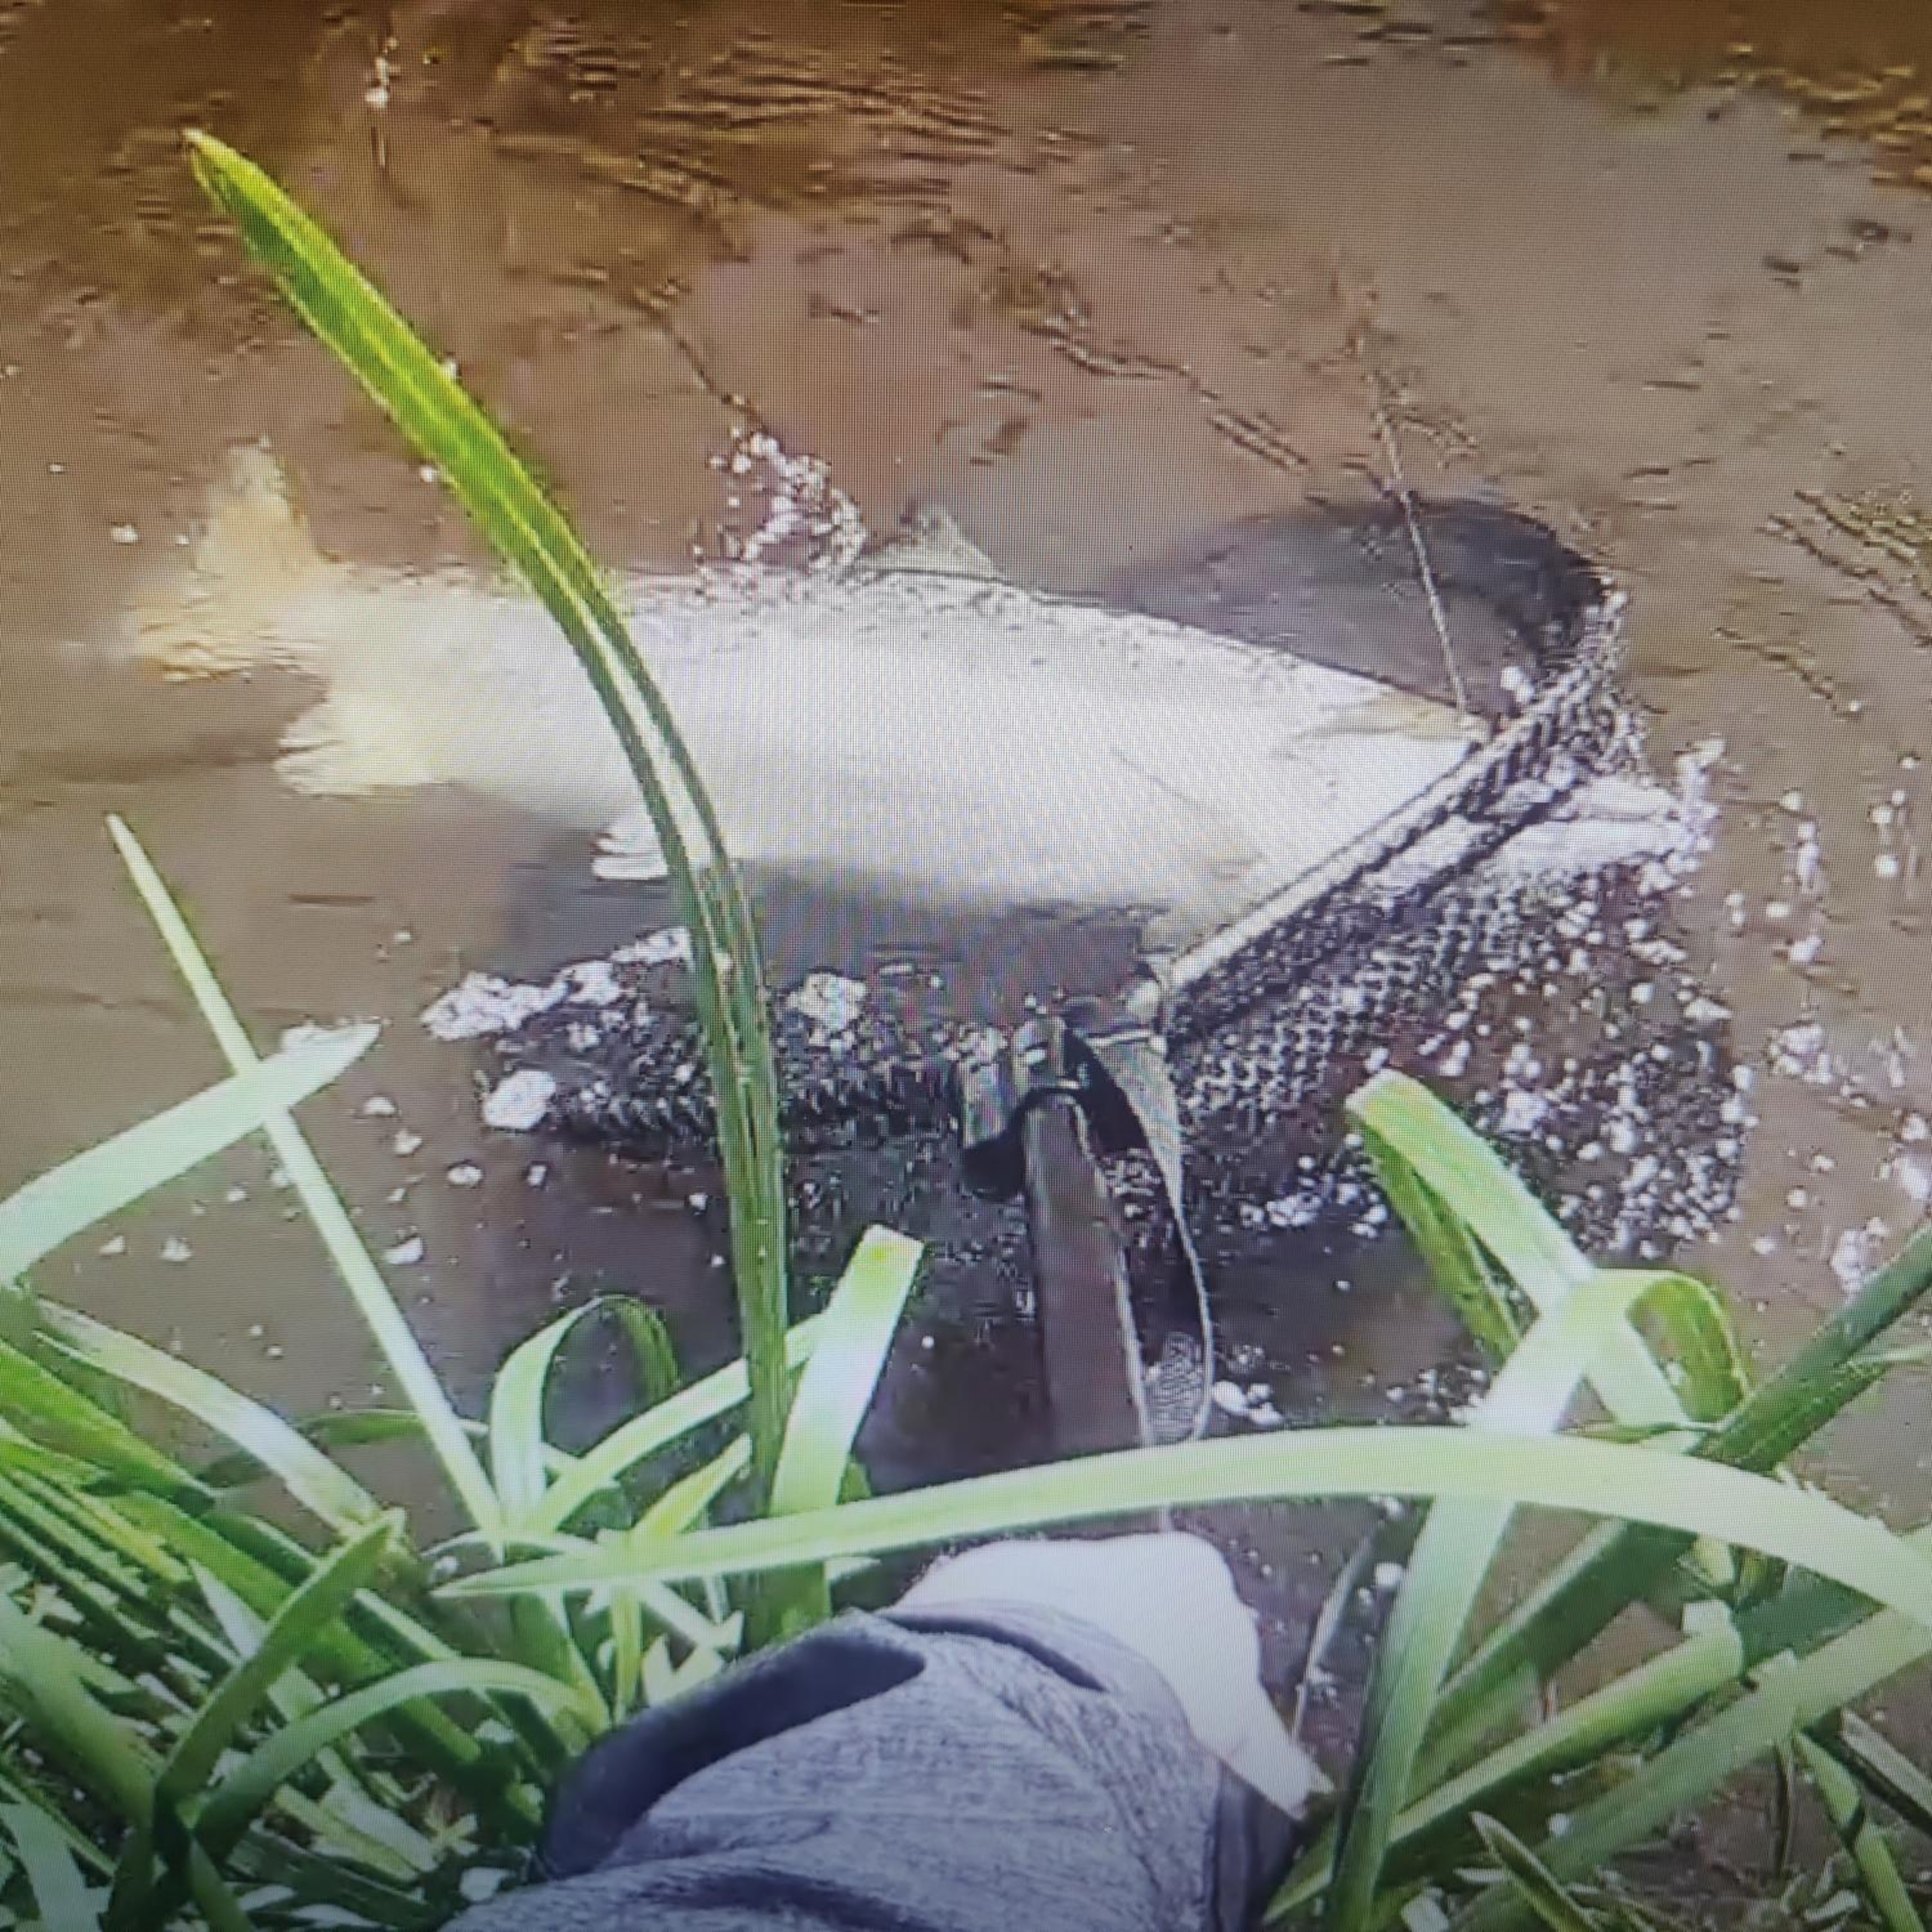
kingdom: Animalia
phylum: Chordata
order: Salmoniformes
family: Salmonidae
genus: Salmo
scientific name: Salmo salar
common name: Laks
